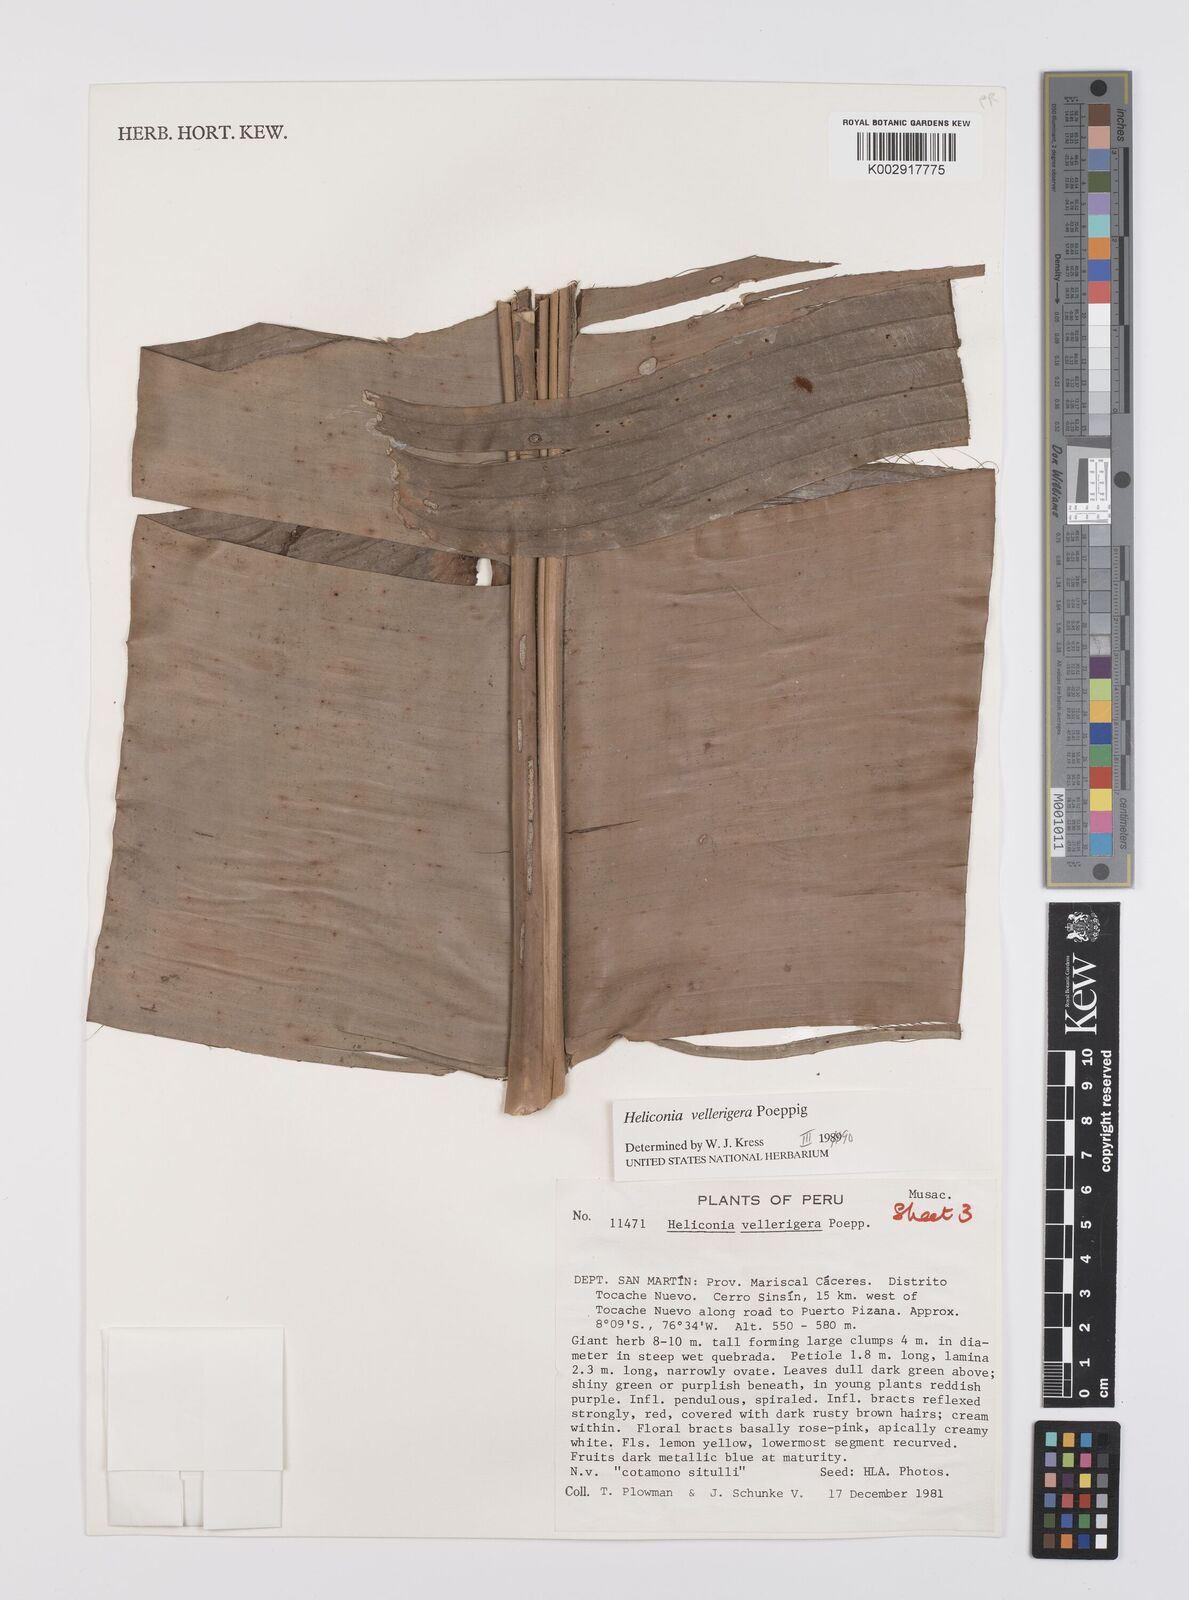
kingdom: Plantae
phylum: Tracheophyta
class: Liliopsida
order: Zingiberales
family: Heliconiaceae
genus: Heliconia
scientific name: Heliconia vellerigera
